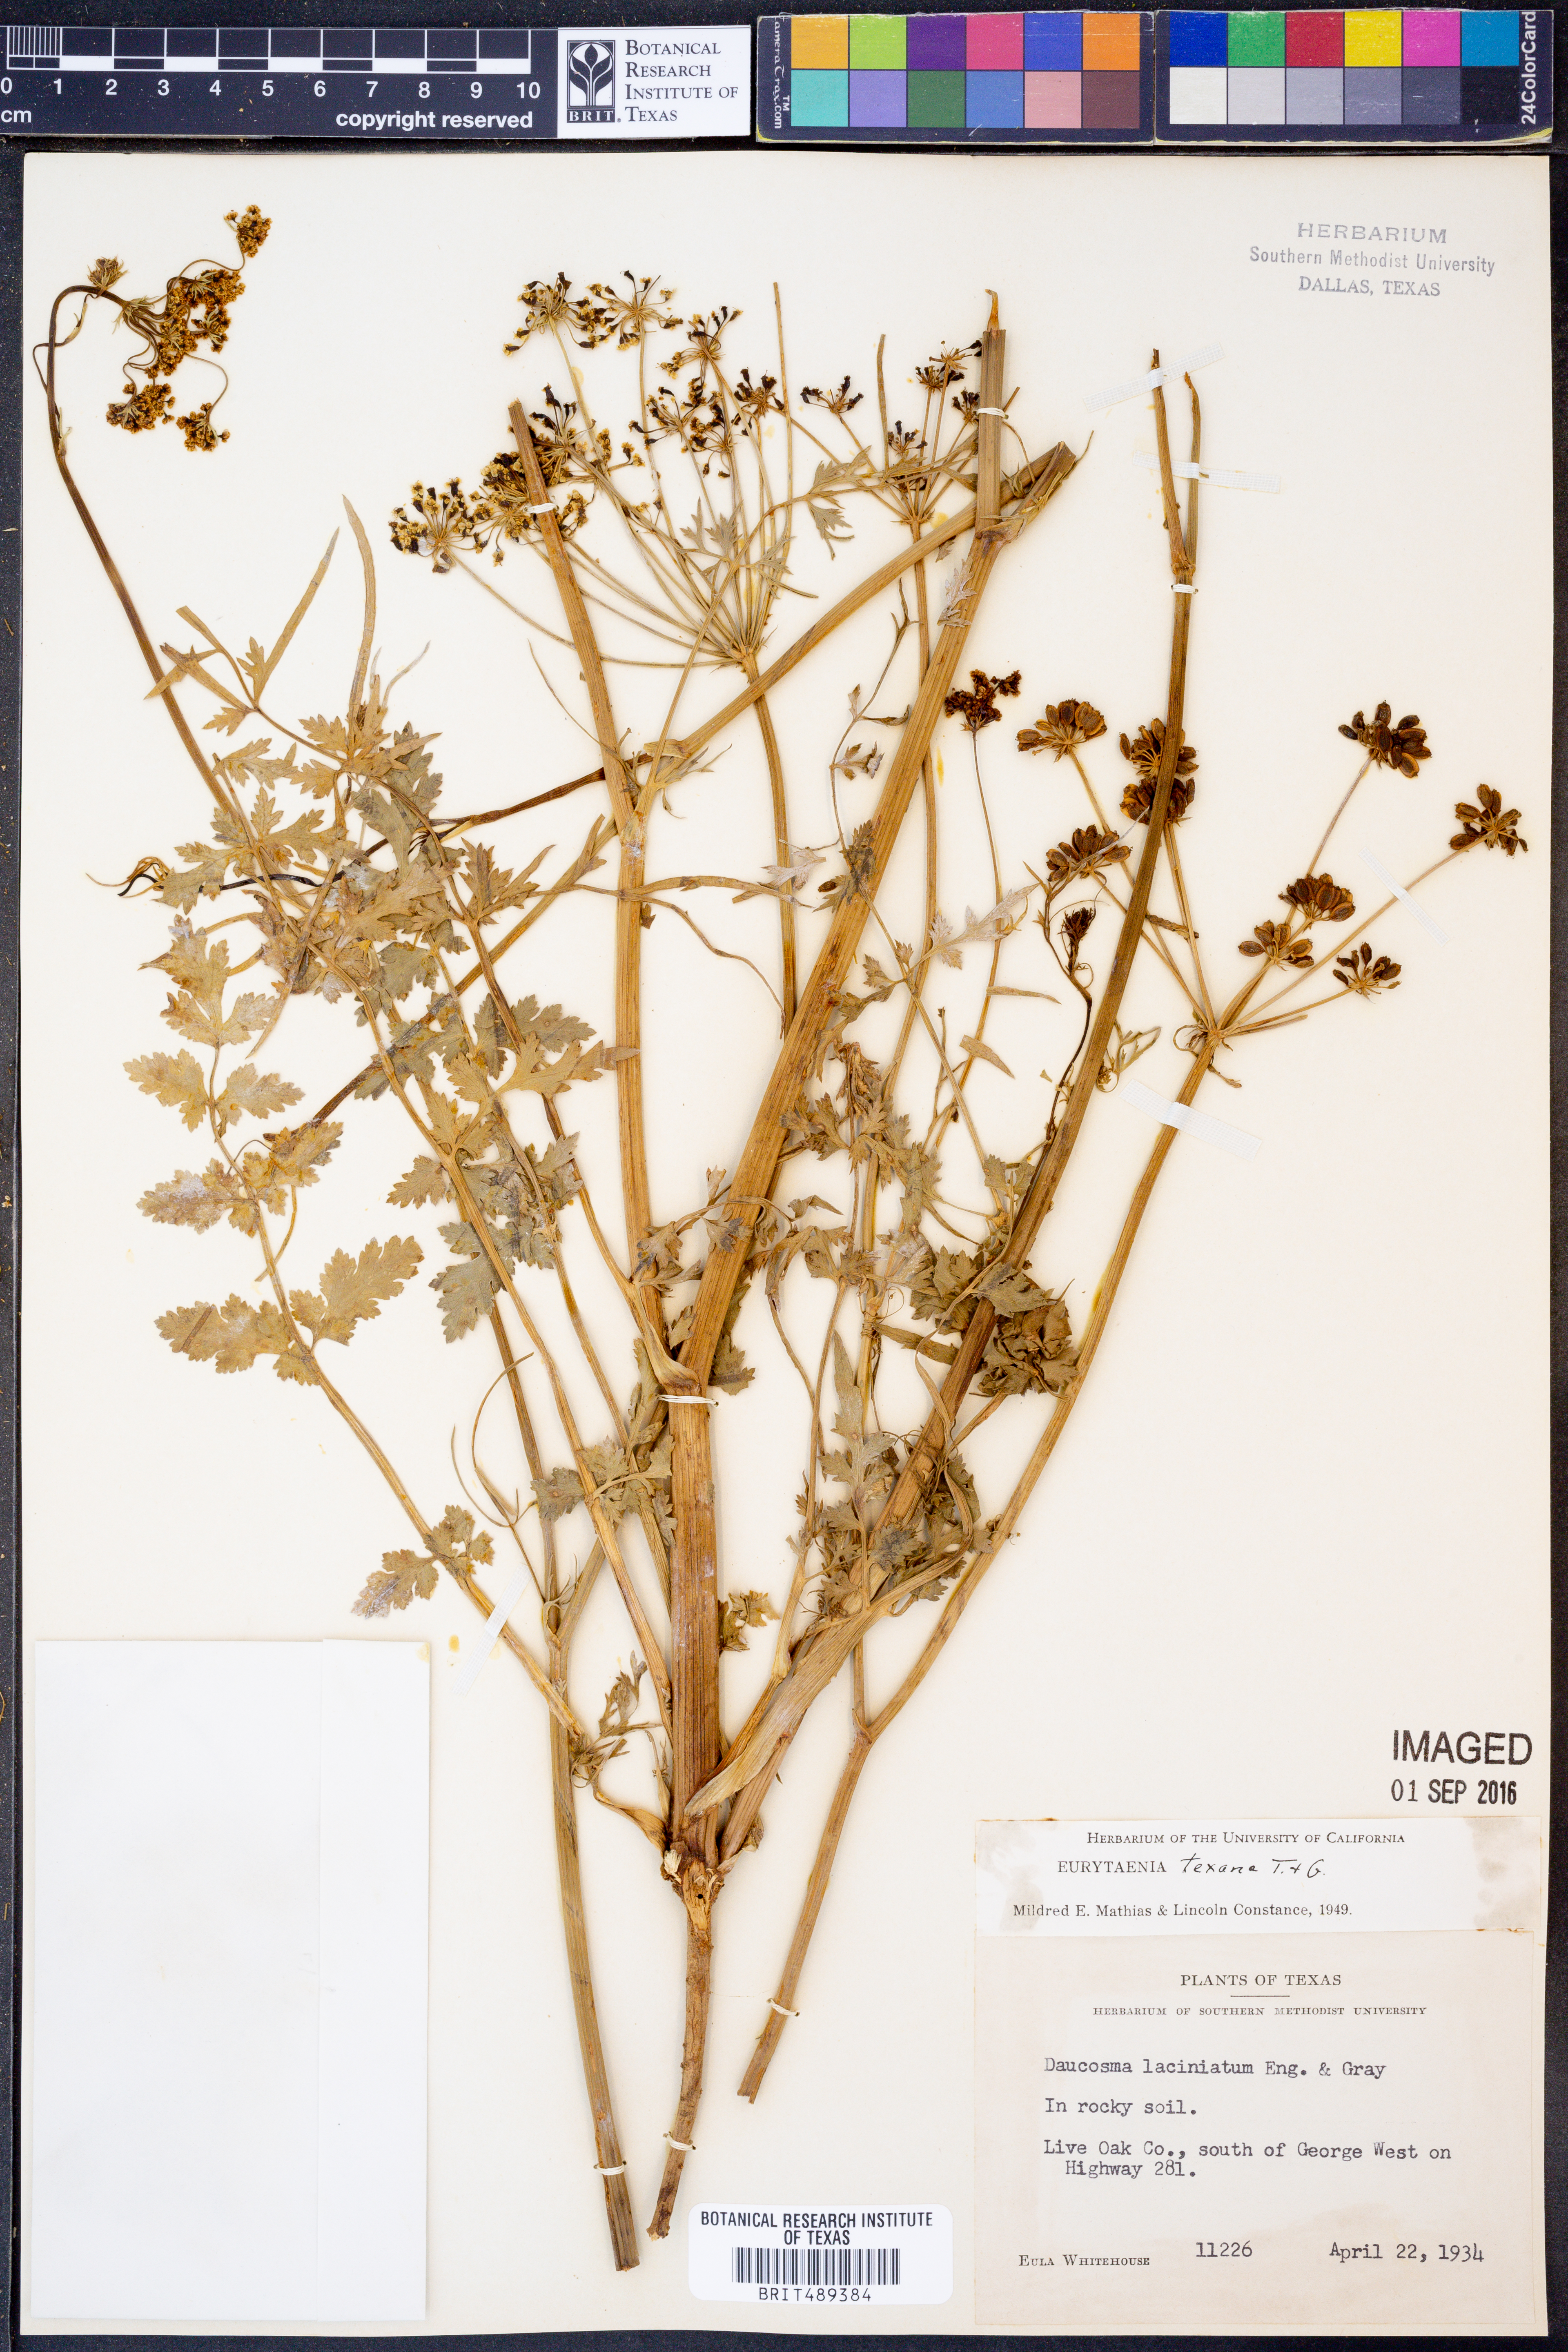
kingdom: Plantae
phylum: Tracheophyta
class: Magnoliopsida
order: Apiales
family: Apiaceae
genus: Eurytaenia
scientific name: Eurytaenia texana
